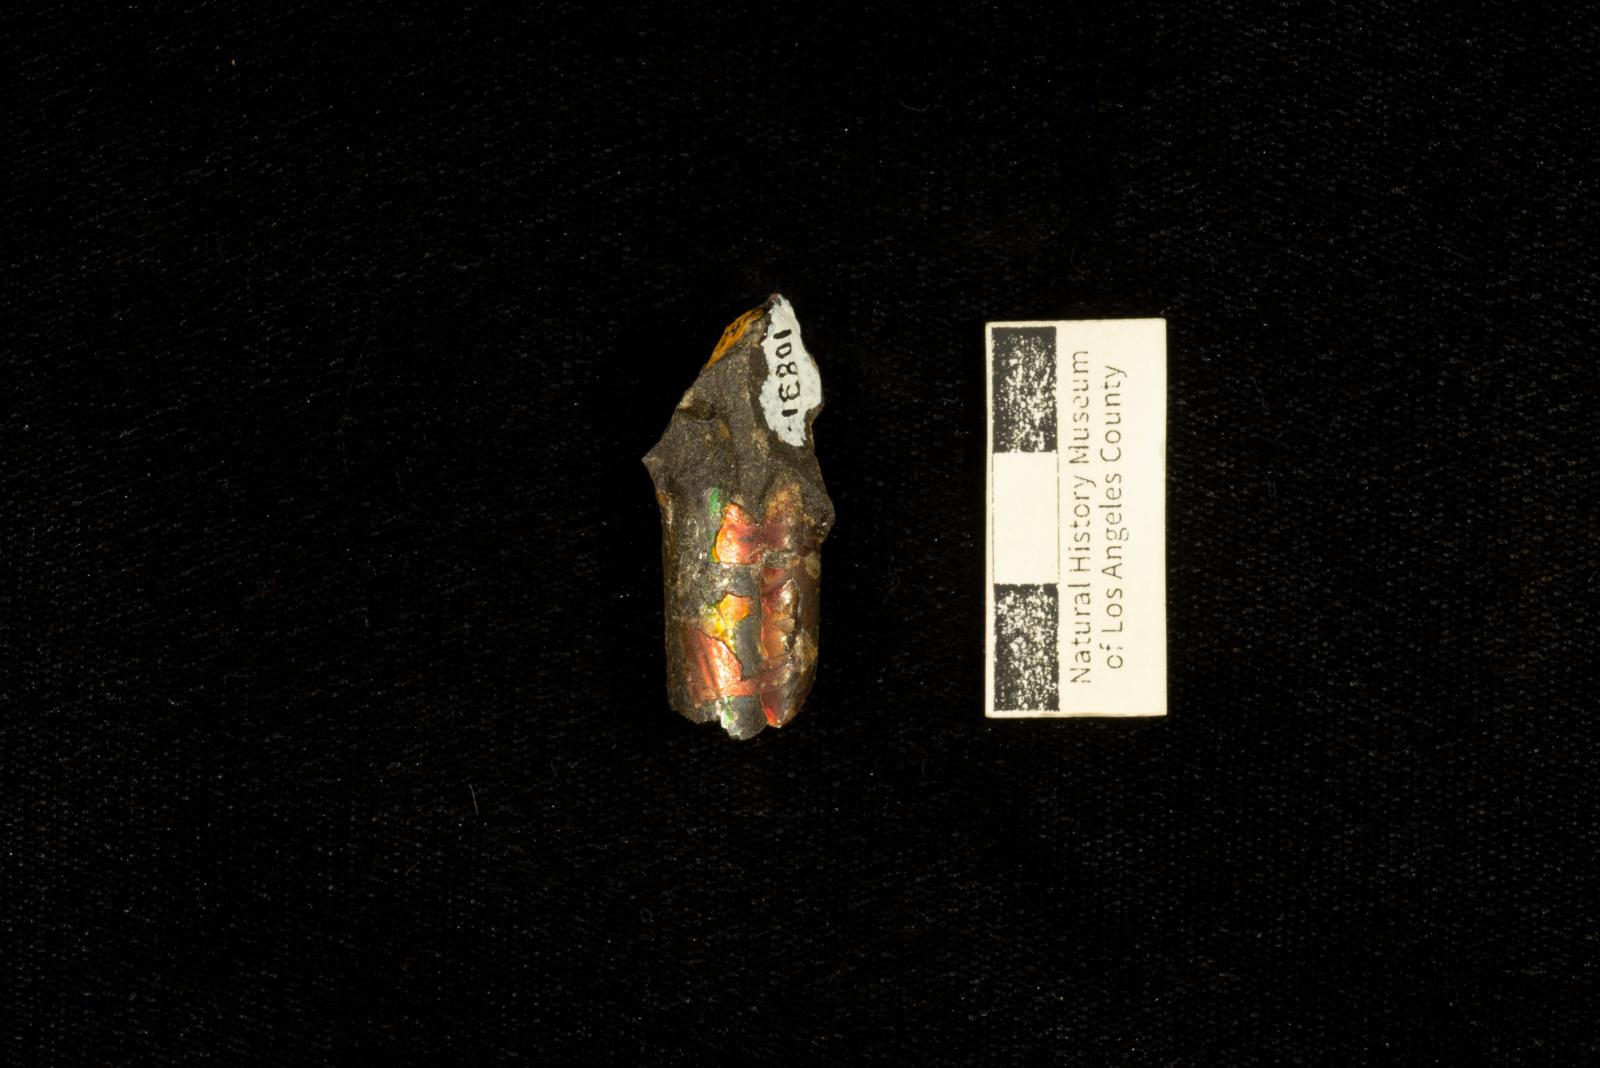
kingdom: Animalia
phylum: Mollusca
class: Cephalopoda
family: Baculitidae
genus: Baculites
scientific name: Baculites
